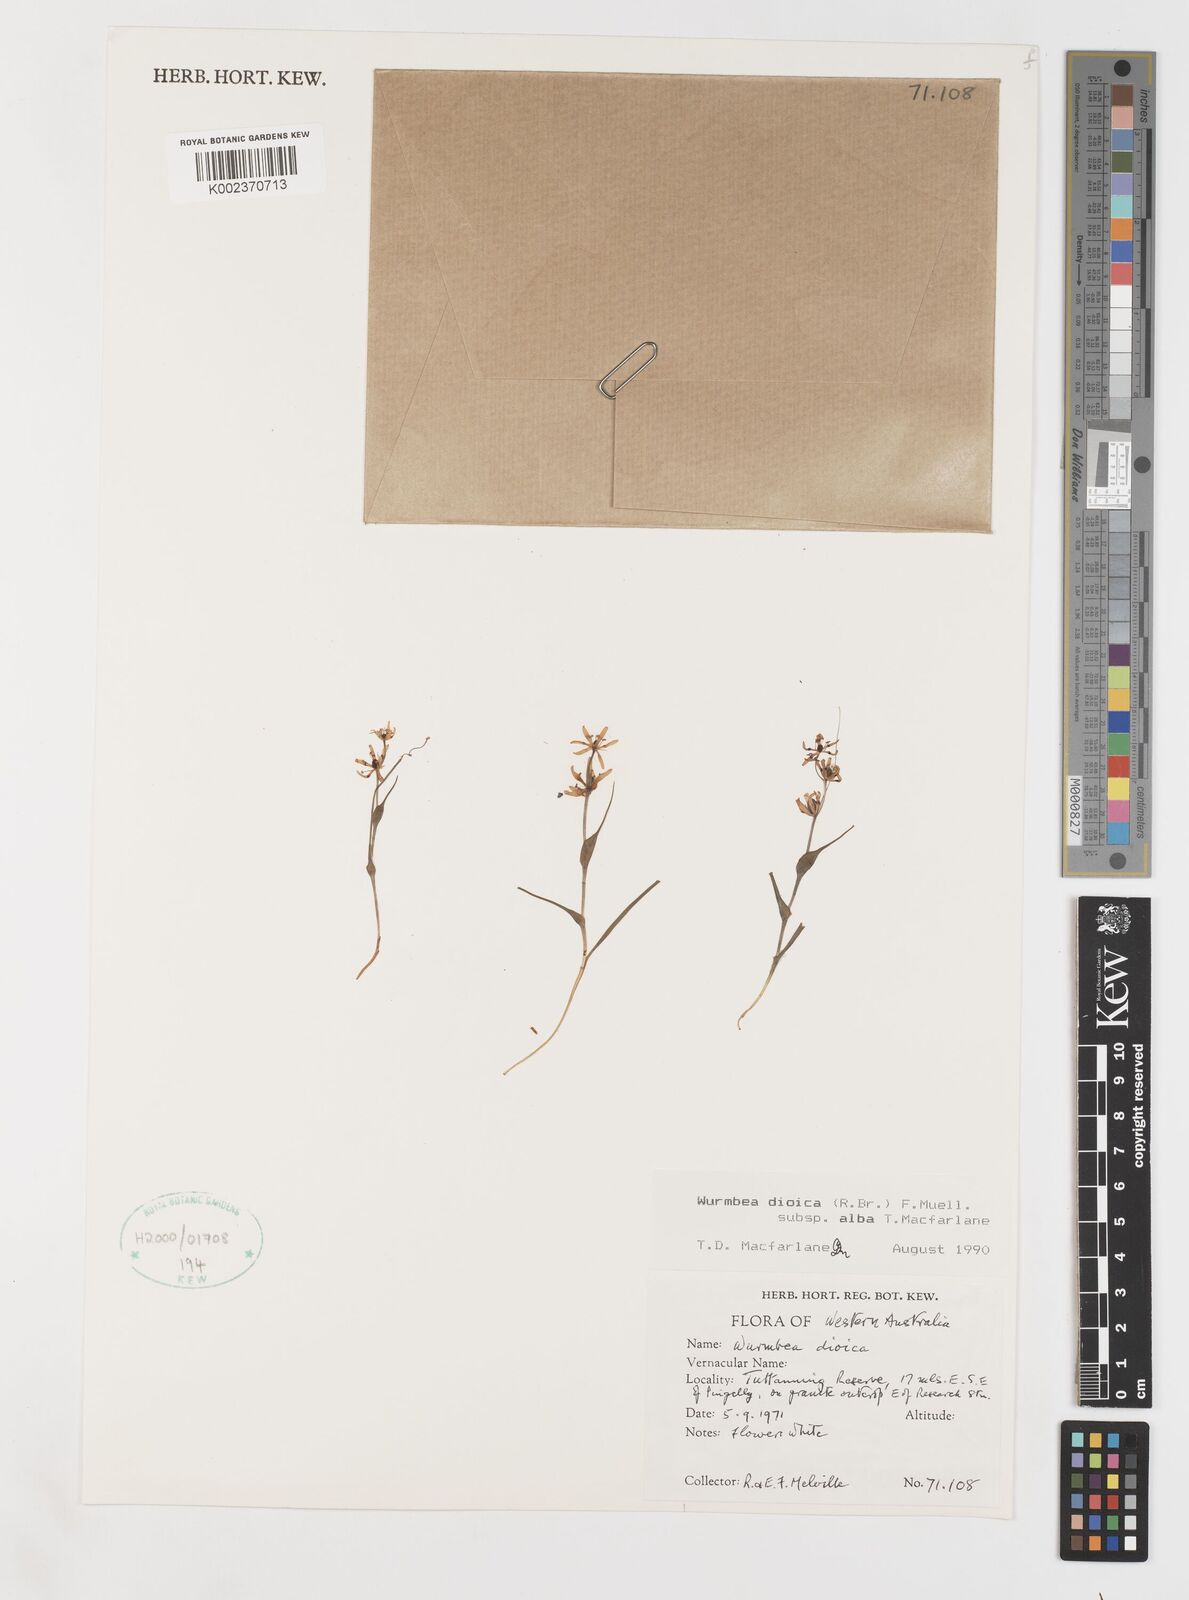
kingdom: Plantae
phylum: Tracheophyta
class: Liliopsida
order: Liliales
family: Colchicaceae
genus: Wurmbea
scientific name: Wurmbea dioica
